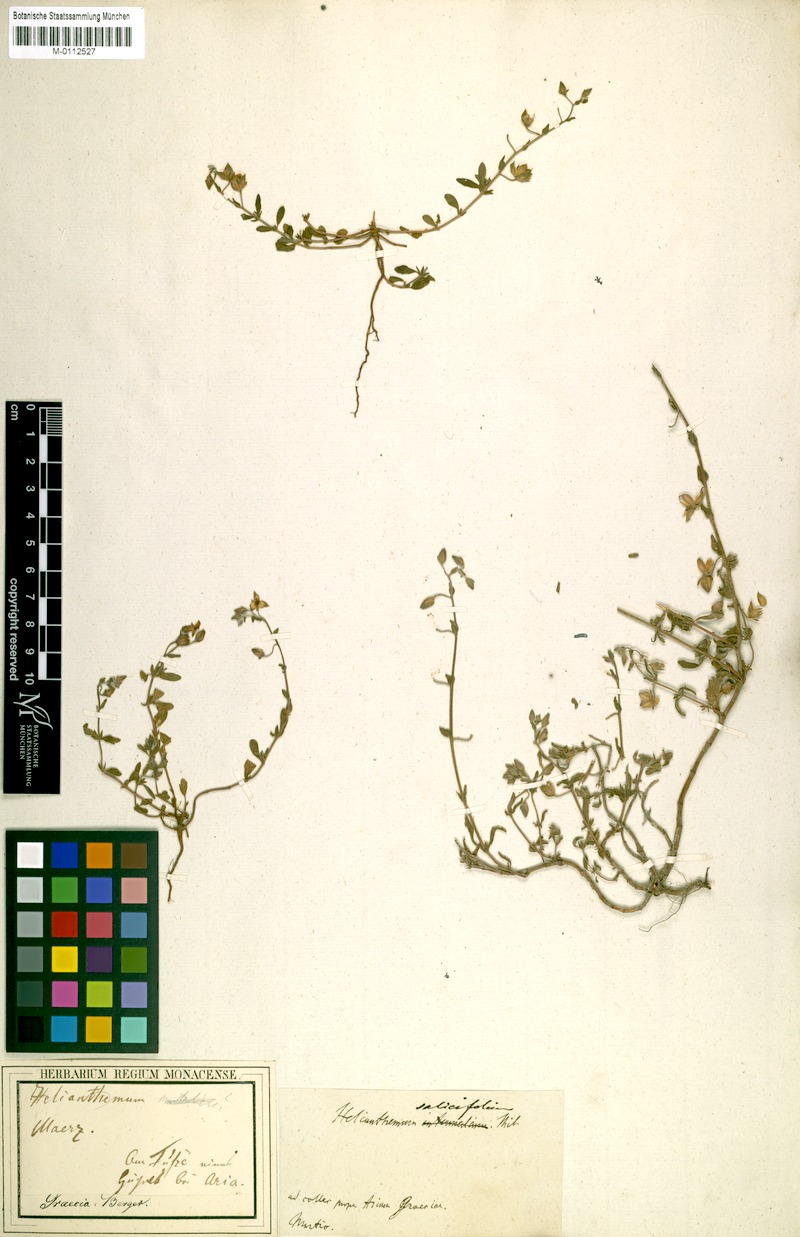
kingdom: Plantae
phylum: Tracheophyta
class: Magnoliopsida
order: Malvales
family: Cistaceae
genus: Helianthemum
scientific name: Helianthemum salicifolium
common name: Willowleaf frostweed
